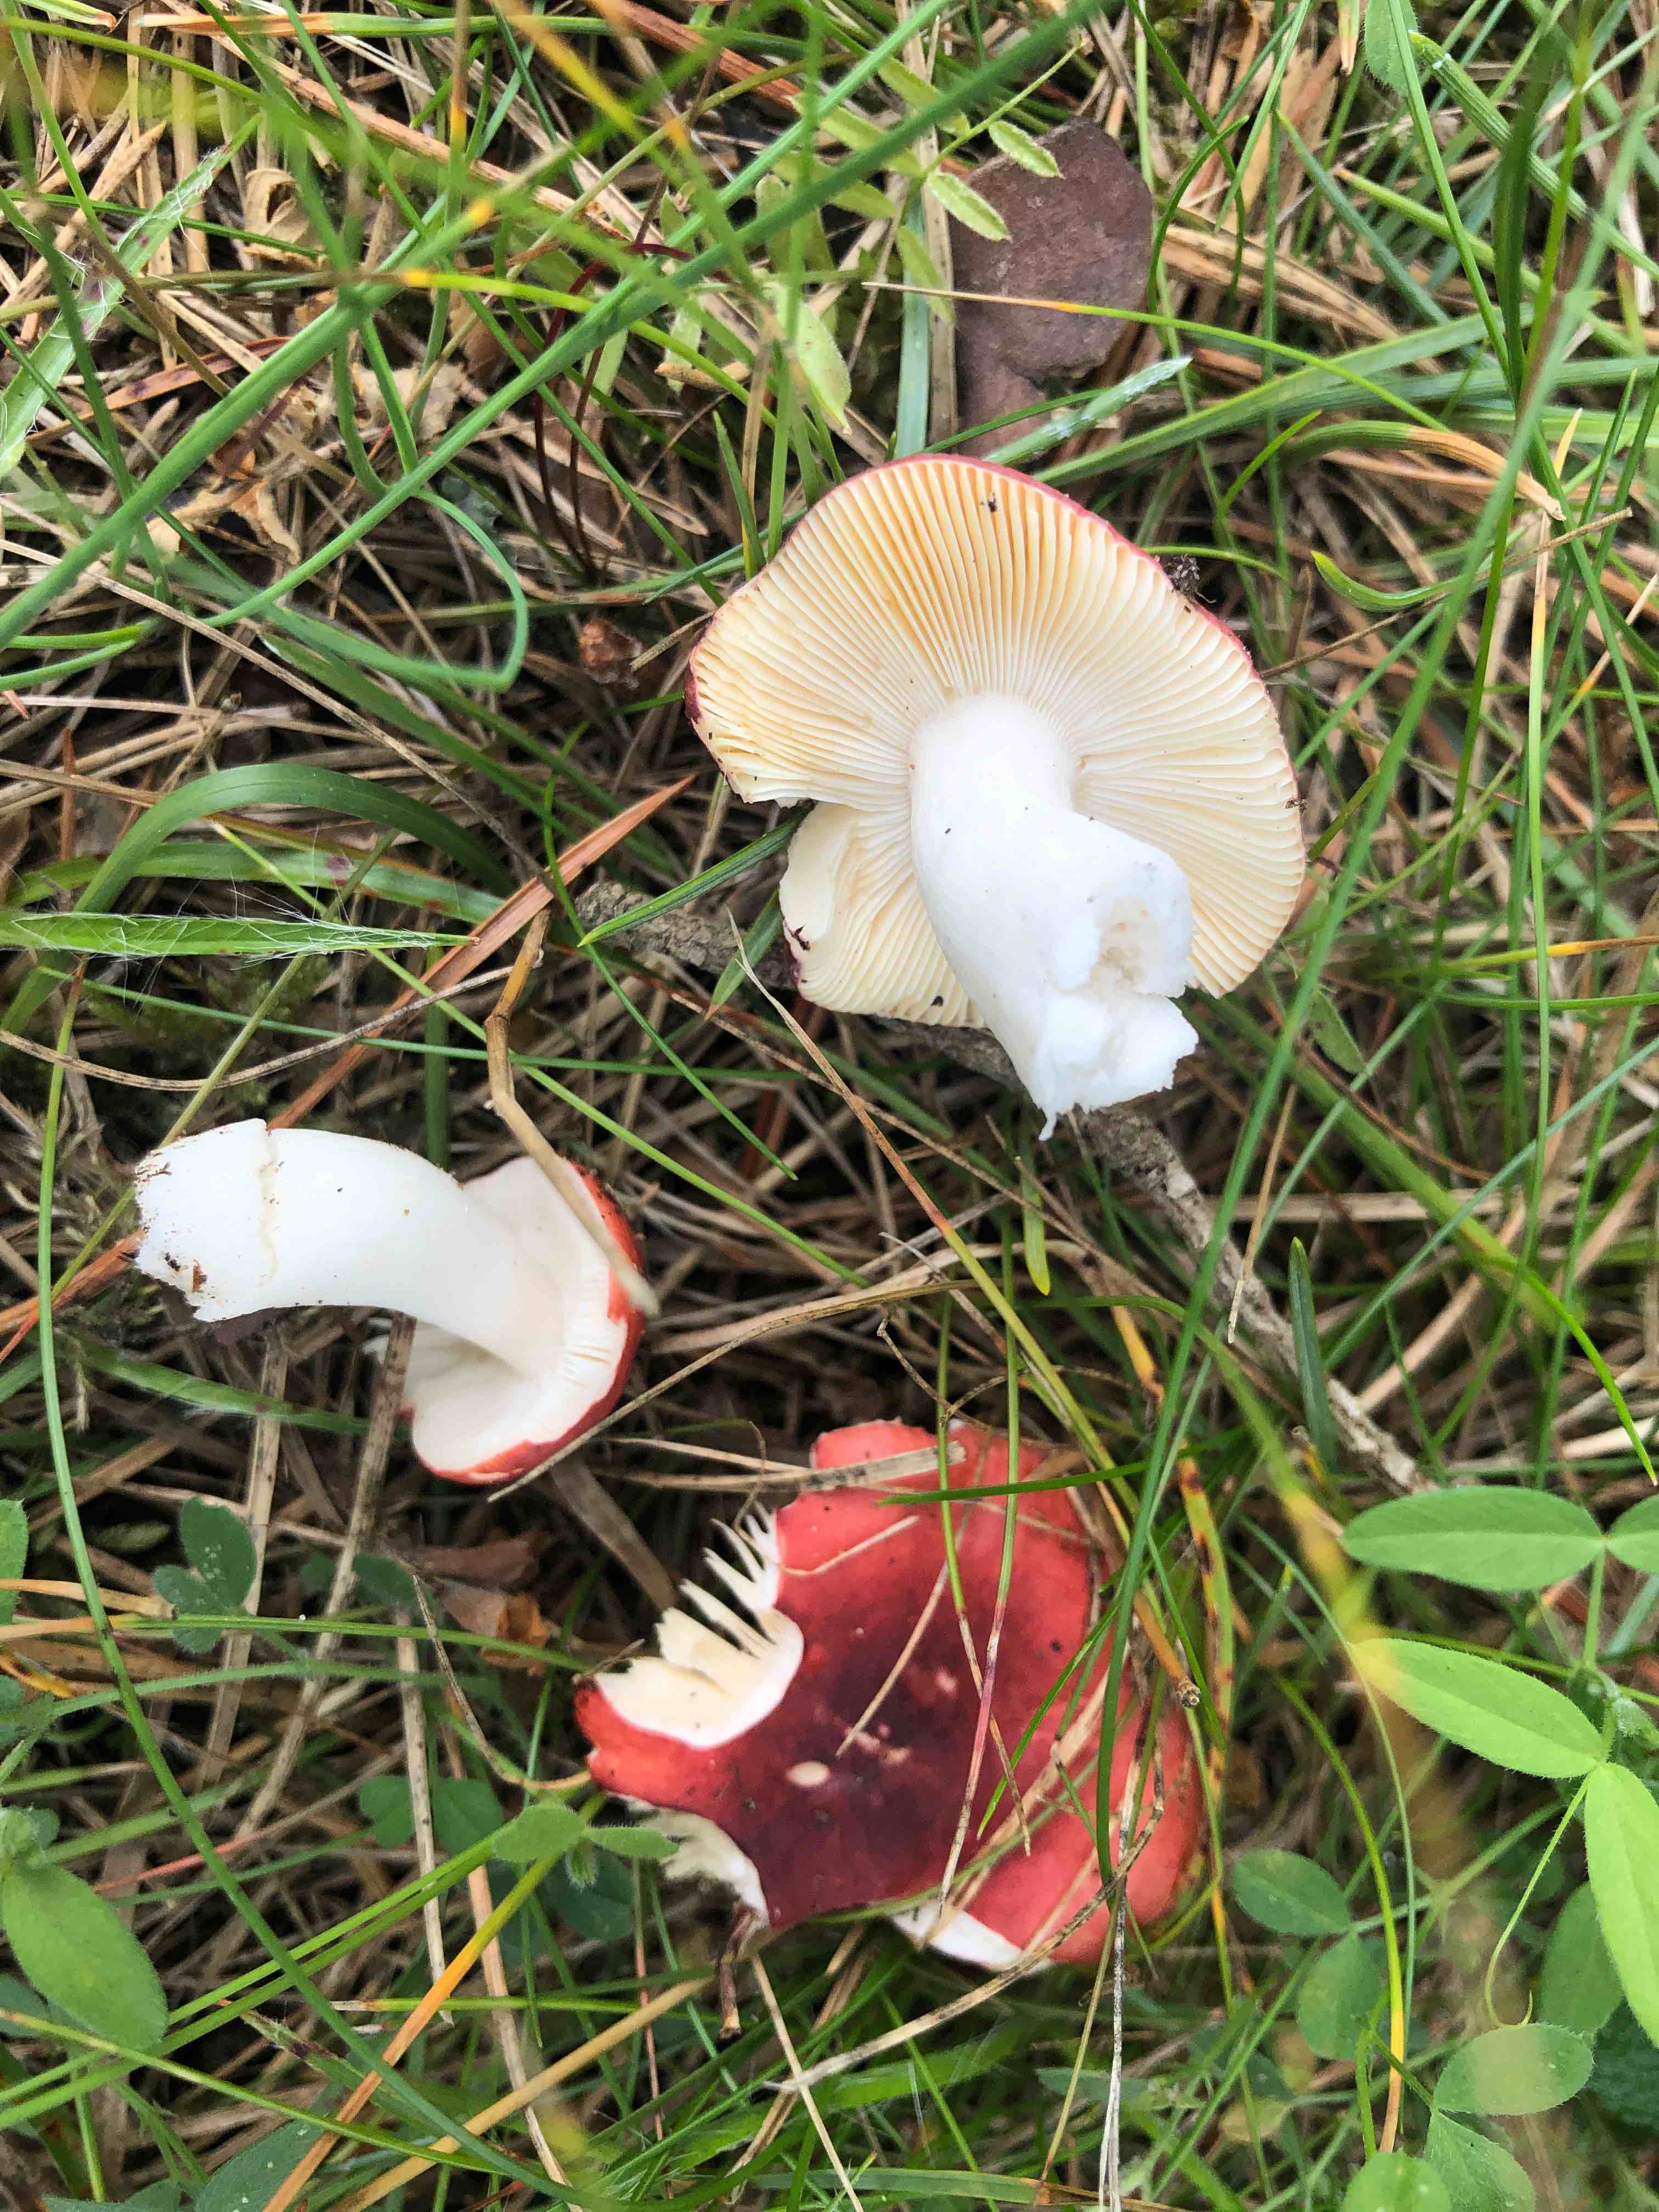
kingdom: Fungi
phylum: Basidiomycota
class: Agaricomycetes
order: Russulales
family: Russulaceae
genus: Russula
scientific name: Russula cessans
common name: fyrre-skørhat
